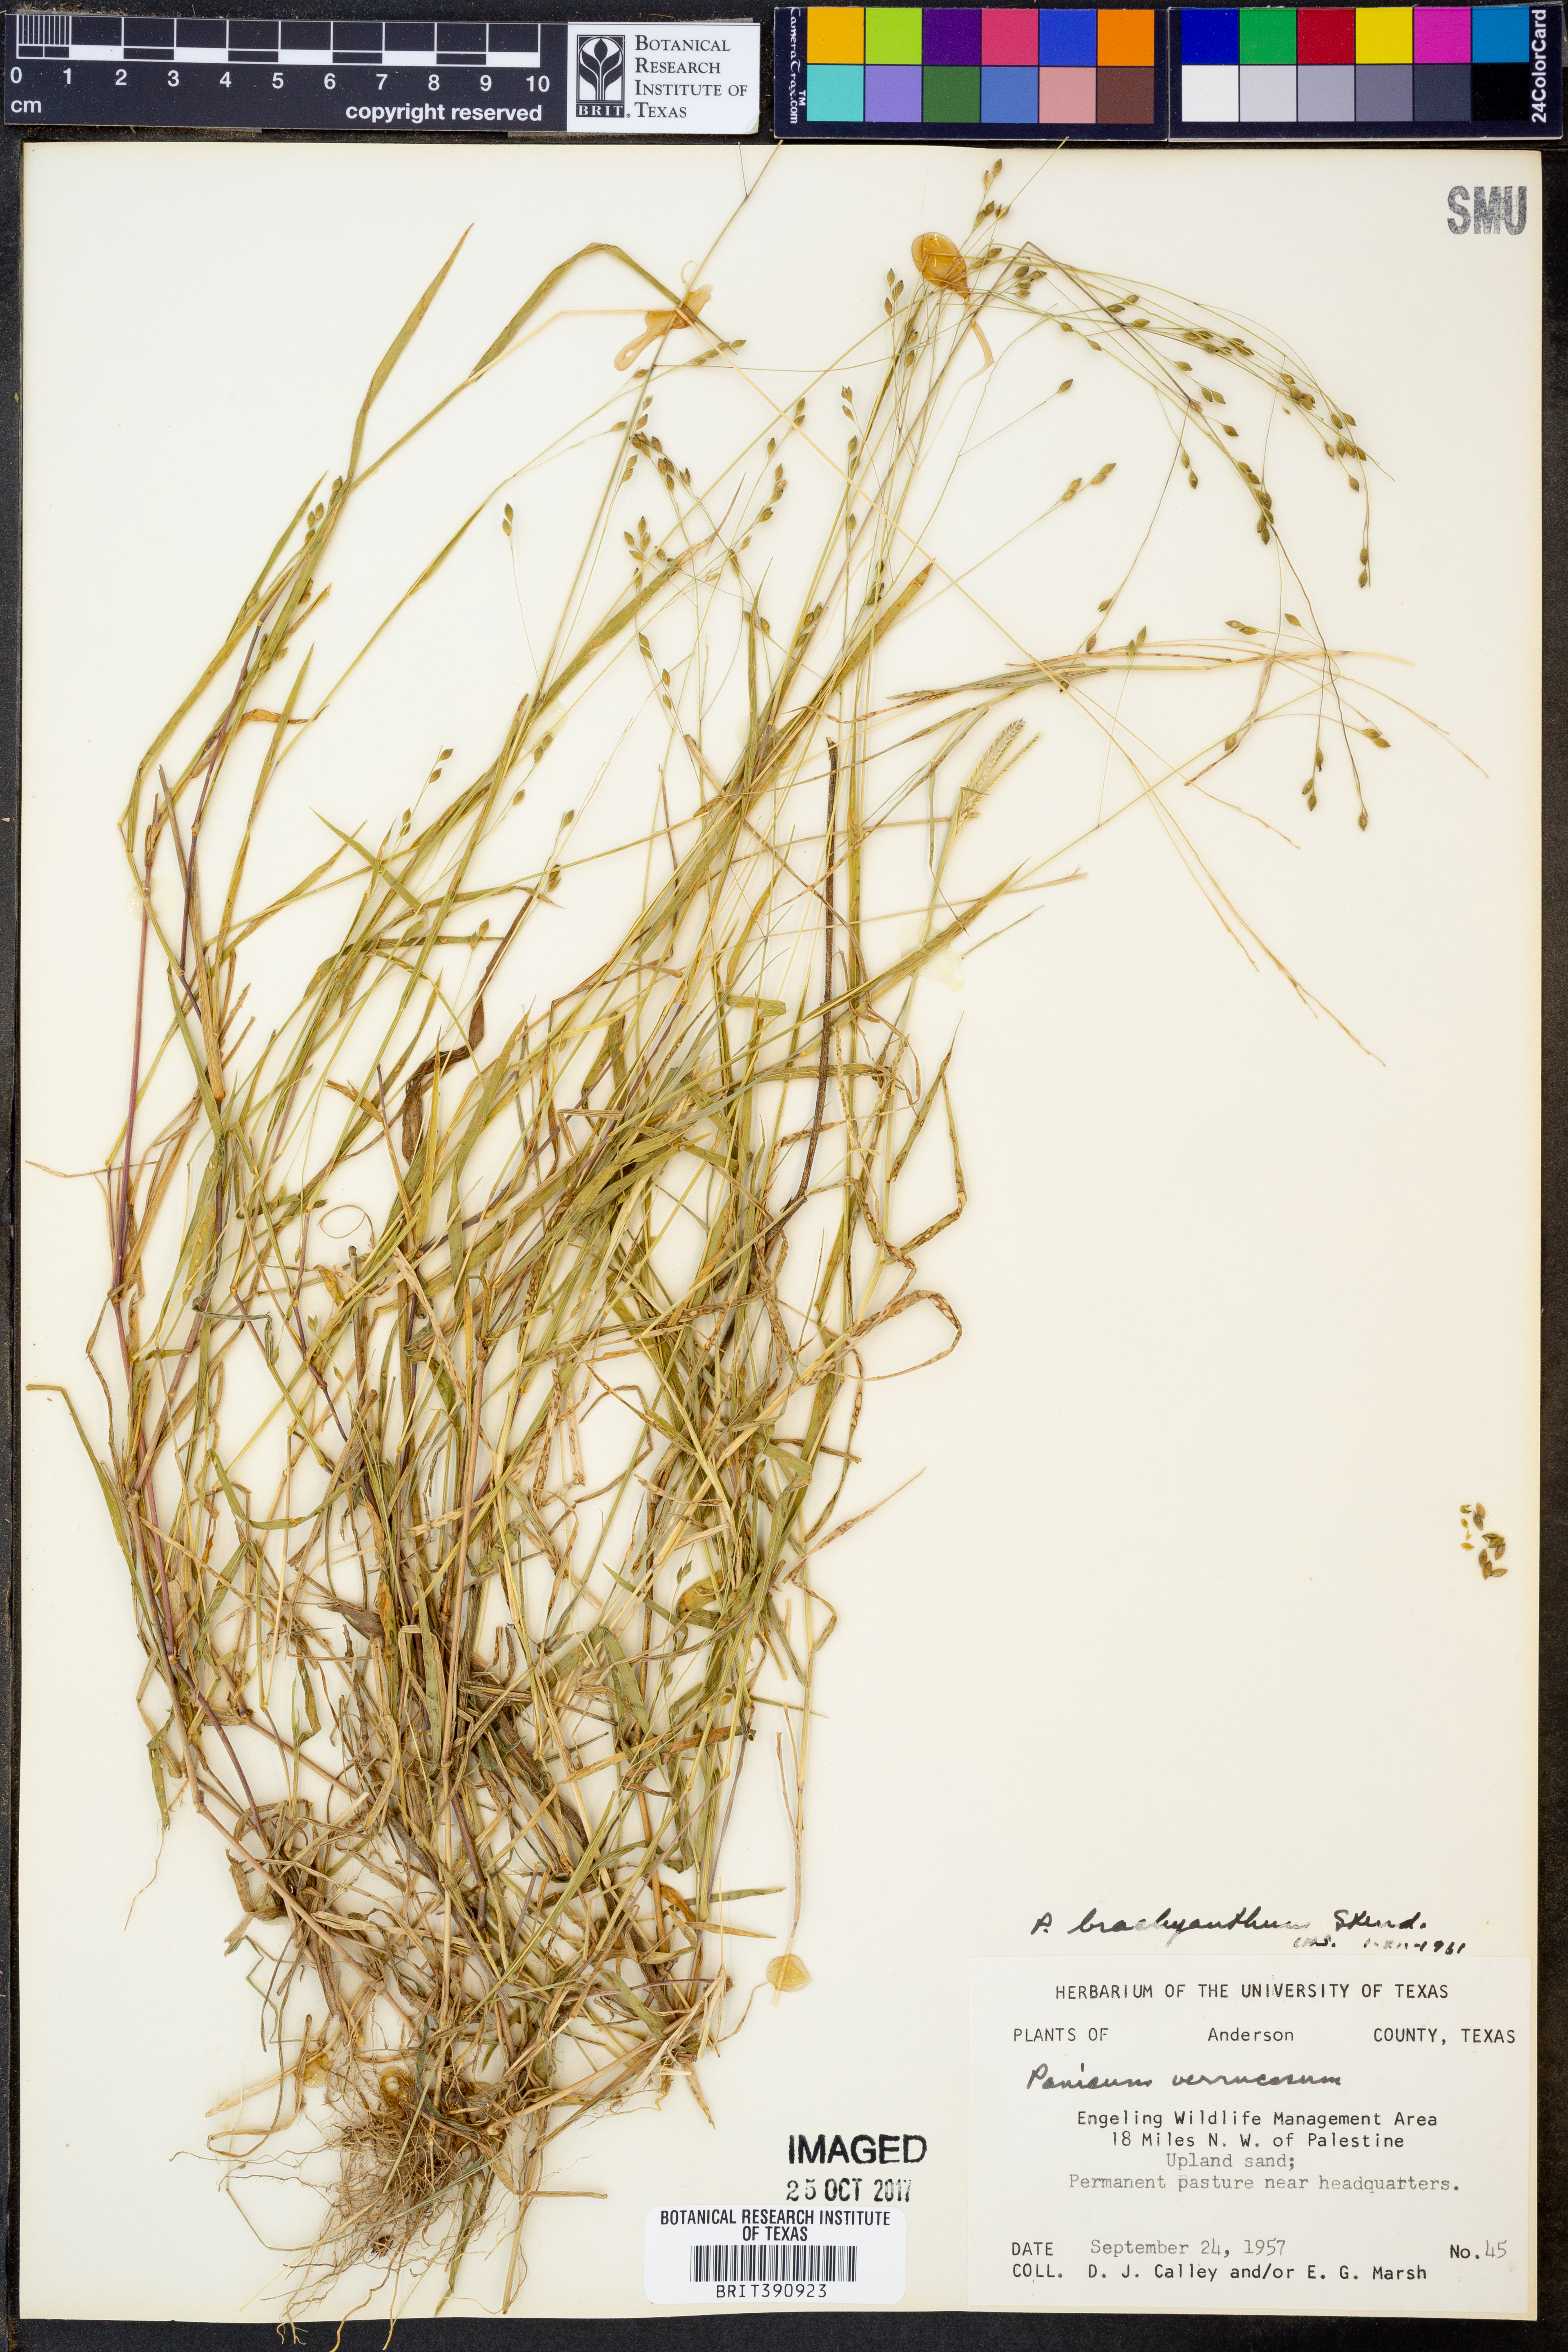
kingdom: Plantae
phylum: Tracheophyta
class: Liliopsida
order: Poales
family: Poaceae
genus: Kellochloa
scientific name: Kellochloa brachyantha
